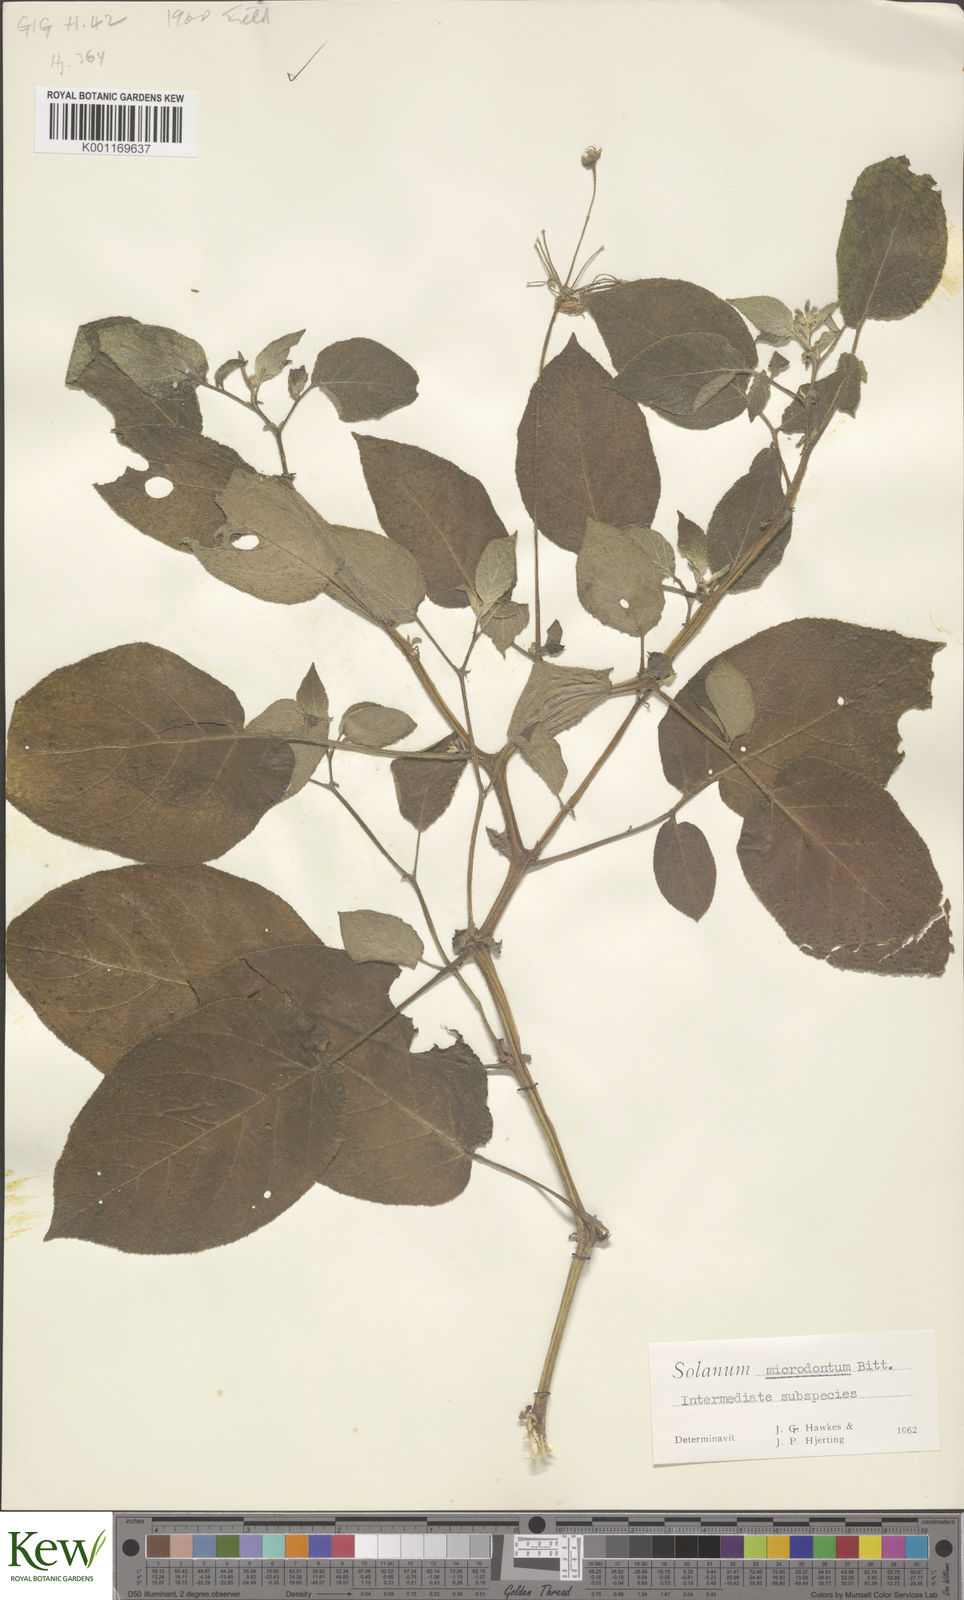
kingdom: Plantae
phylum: Tracheophyta
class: Magnoliopsida
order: Solanales
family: Solanaceae
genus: Solanum
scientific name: Solanum microdontum
